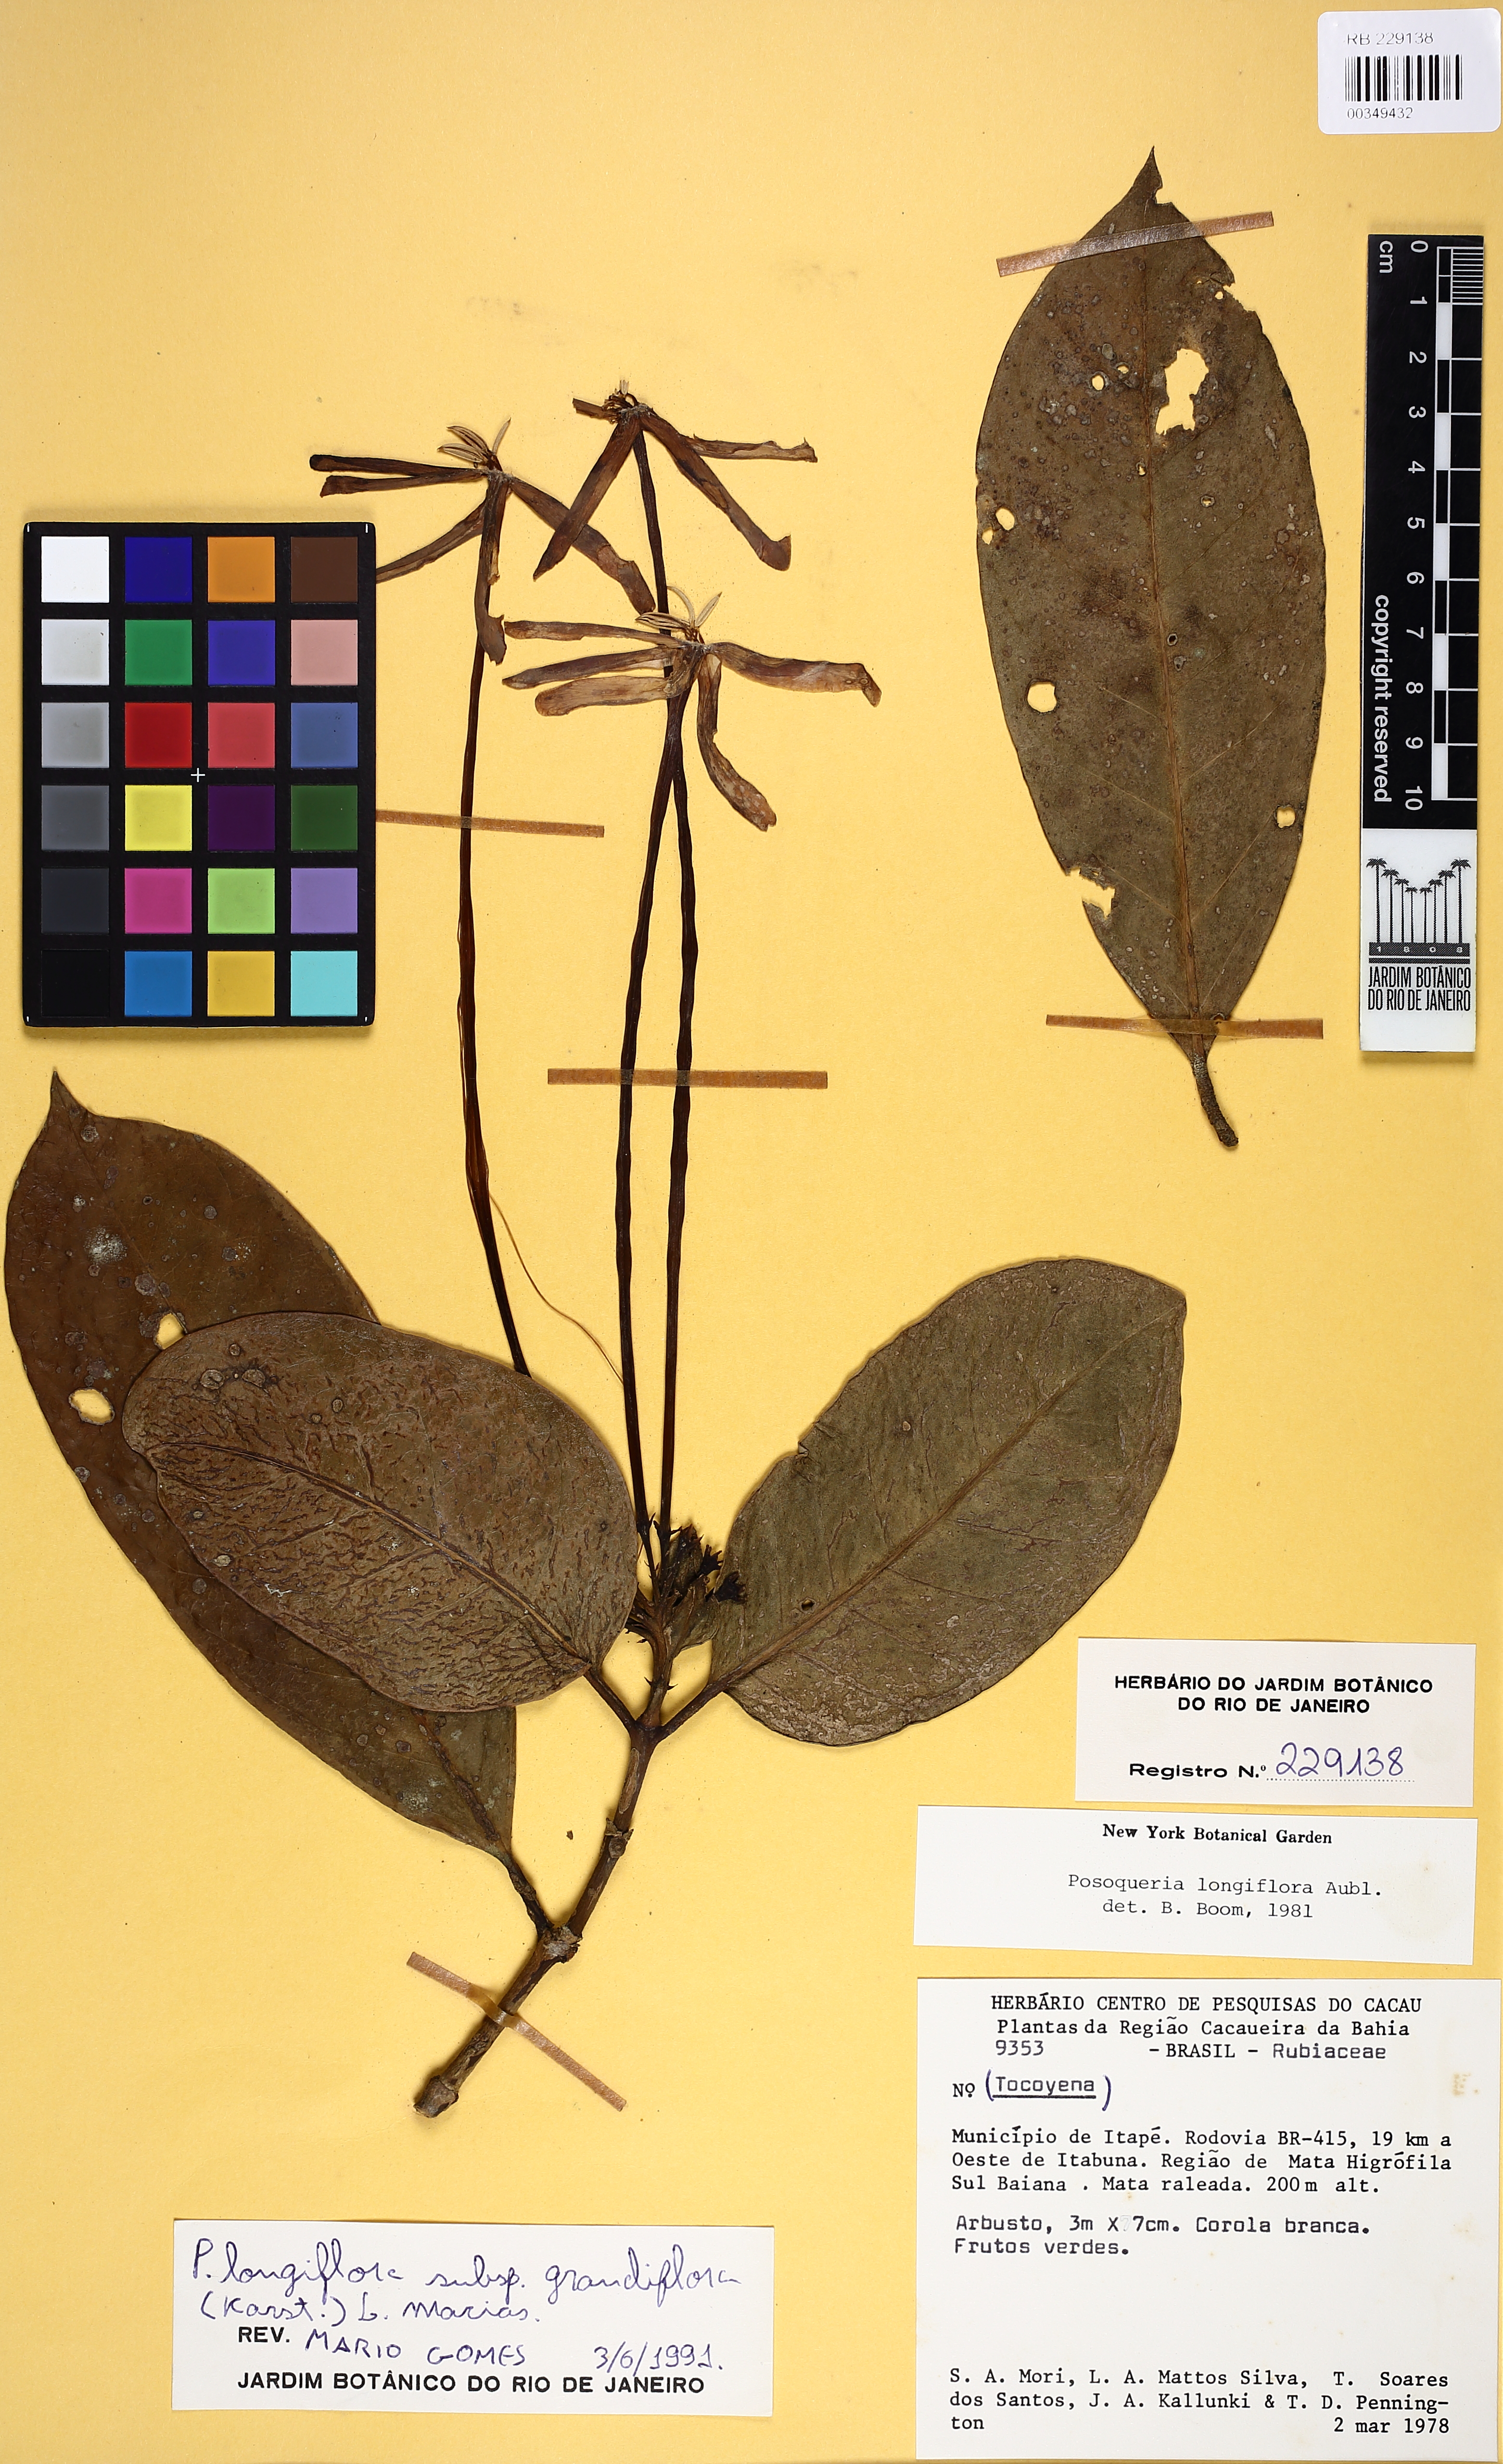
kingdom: Plantae
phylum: Tracheophyta
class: Magnoliopsida
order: Gentianales
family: Rubiaceae
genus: Posoqueria
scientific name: Posoqueria longiflora
